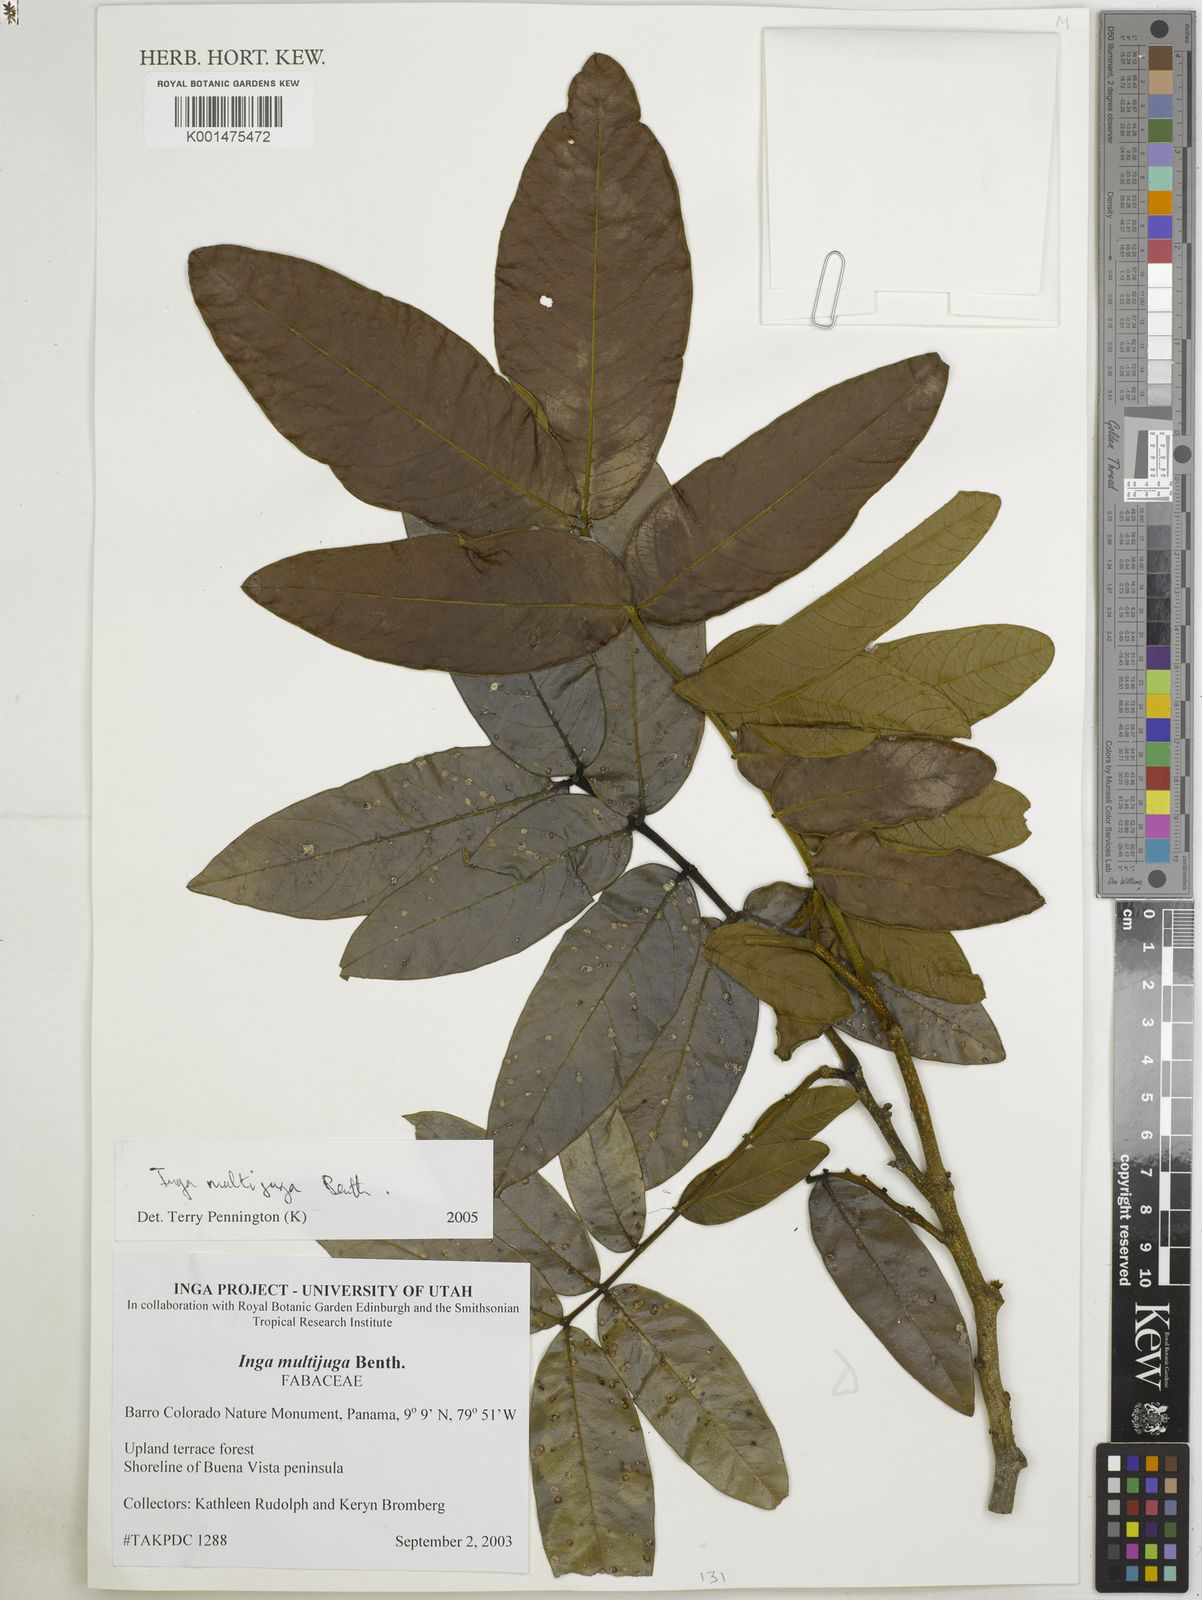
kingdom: Plantae
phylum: Tracheophyta
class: Magnoliopsida
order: Fabales
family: Fabaceae
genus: Inga
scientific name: Inga multijuga
